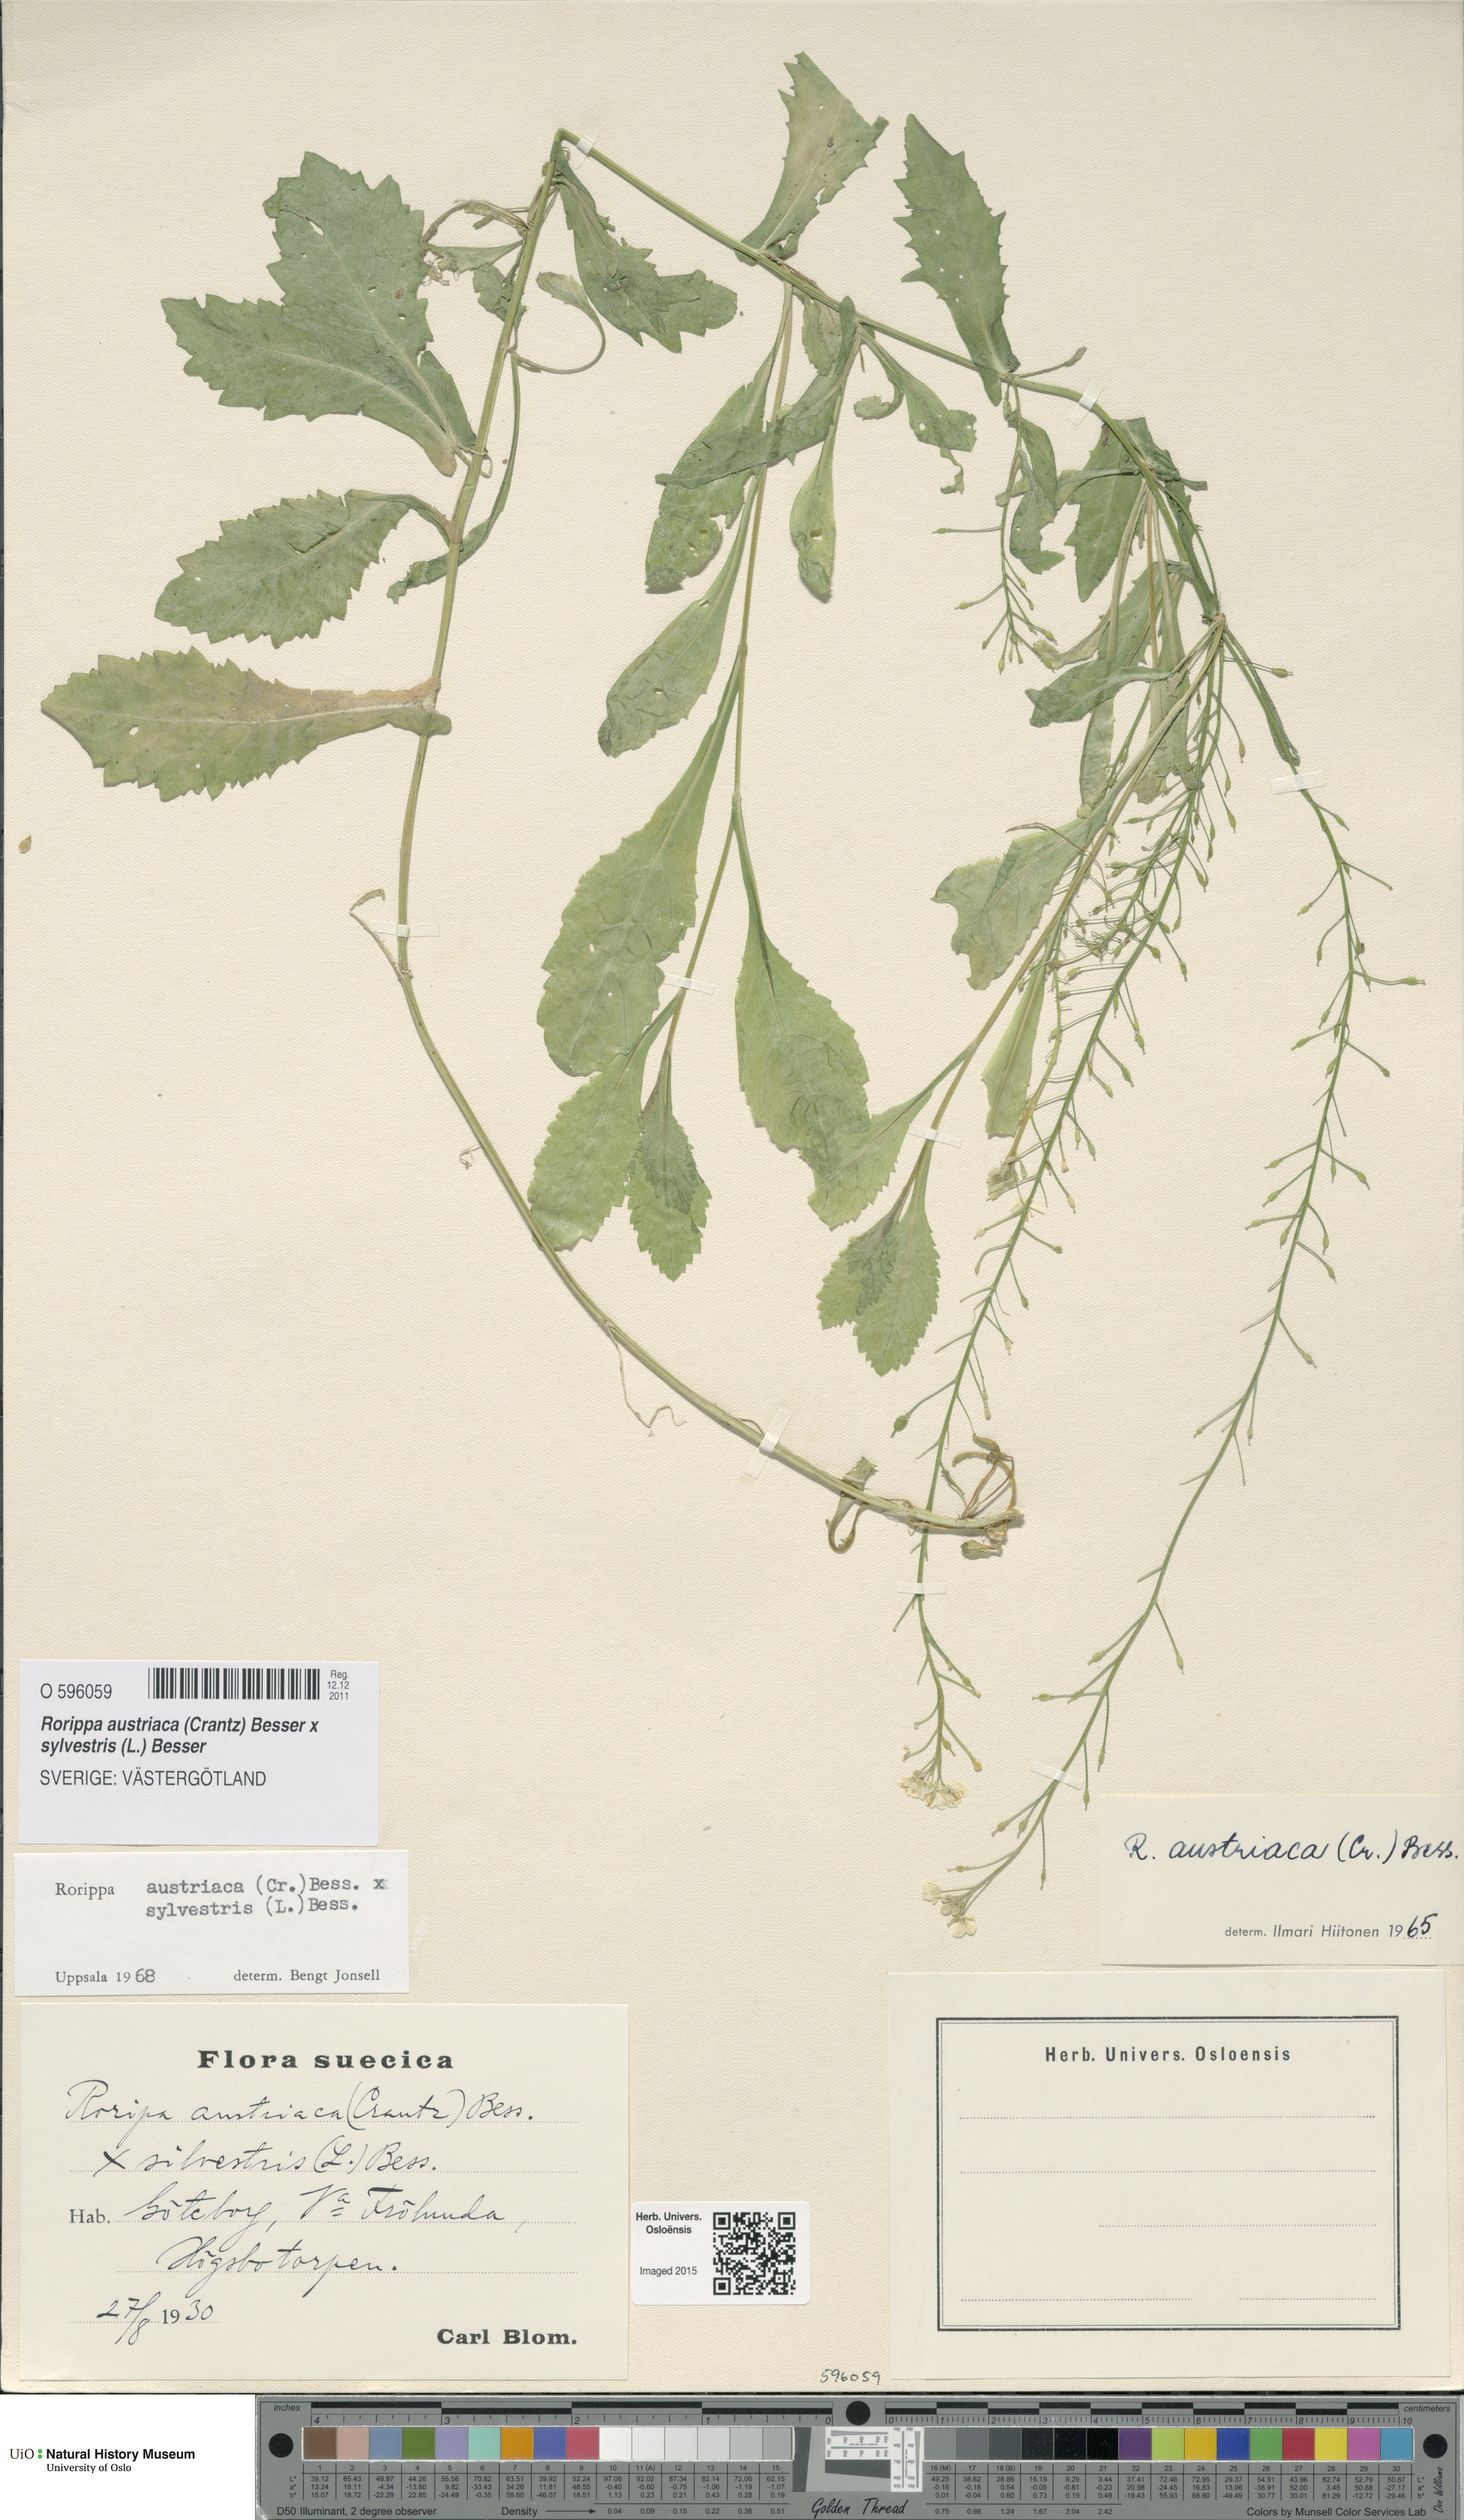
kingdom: Plantae
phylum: Tracheophyta
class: Magnoliopsida
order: Brassicales
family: Brassicaceae
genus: Rorippa
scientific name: Rorippa
